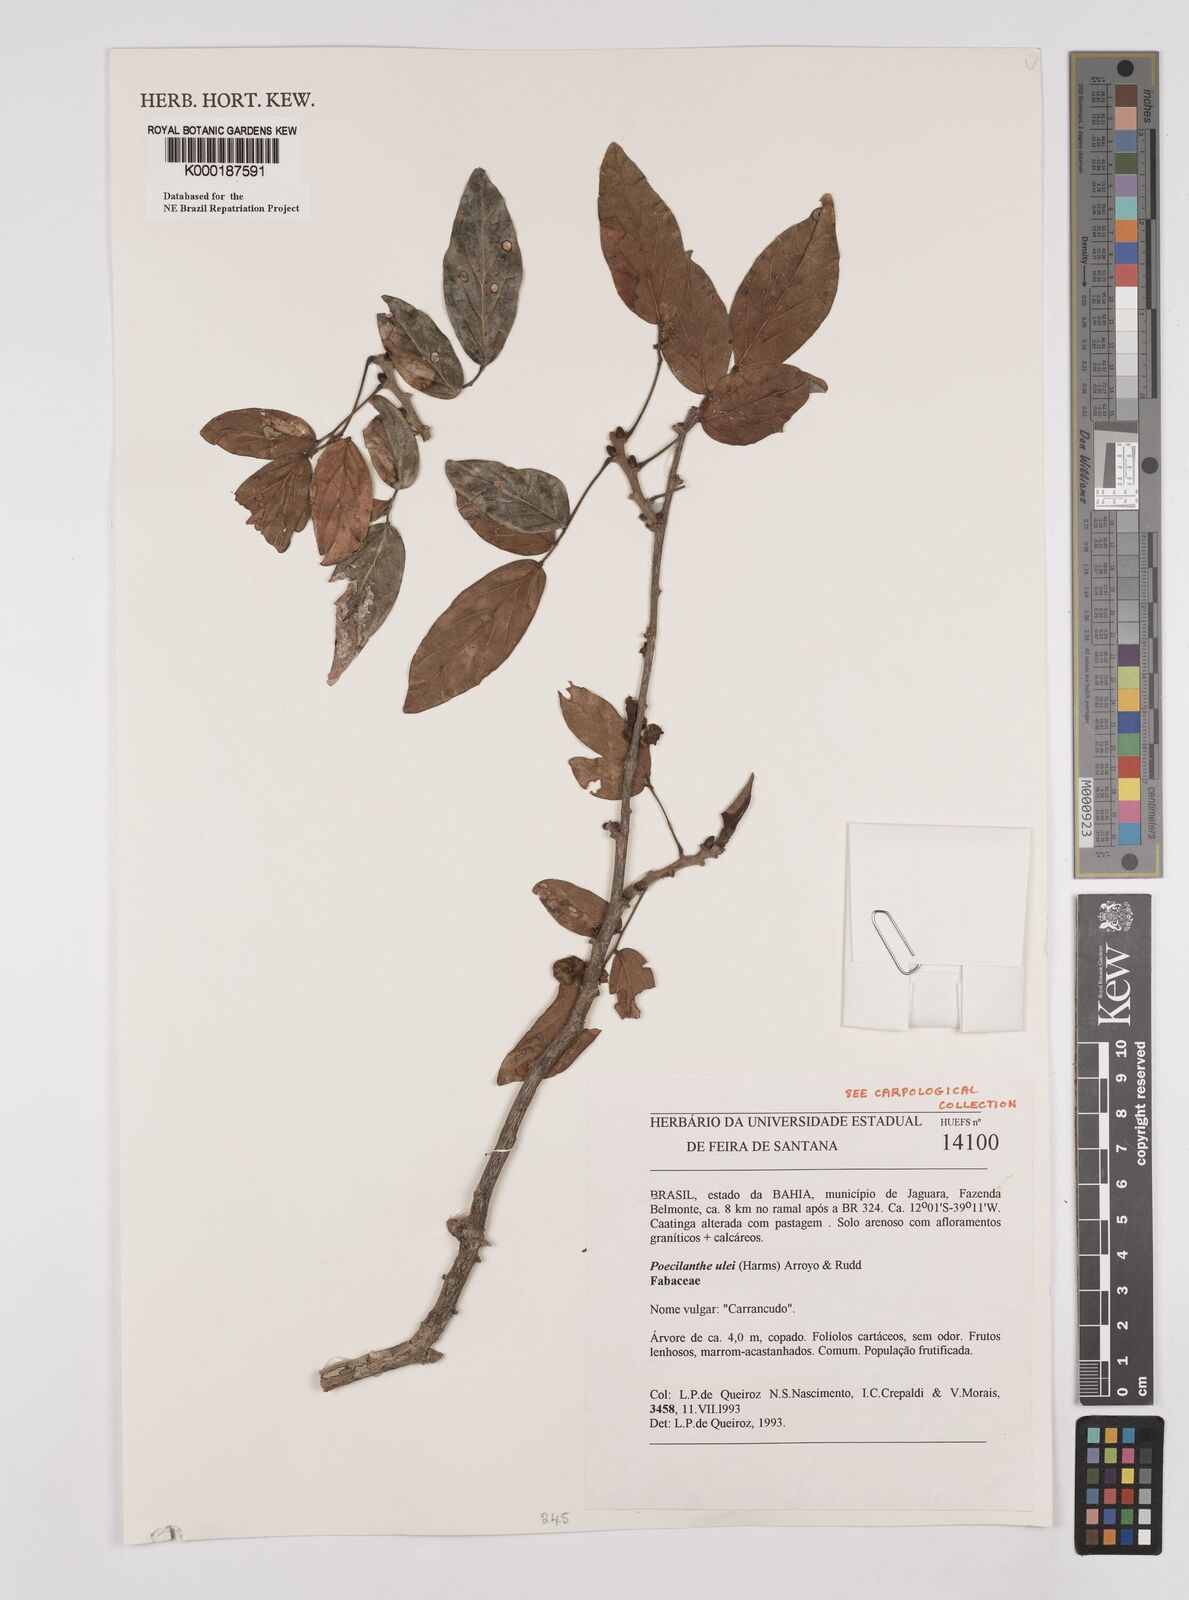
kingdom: Plantae
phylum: Tracheophyta
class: Magnoliopsida
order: Fabales
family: Fabaceae
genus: Poecilanthe
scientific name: Poecilanthe ulei
